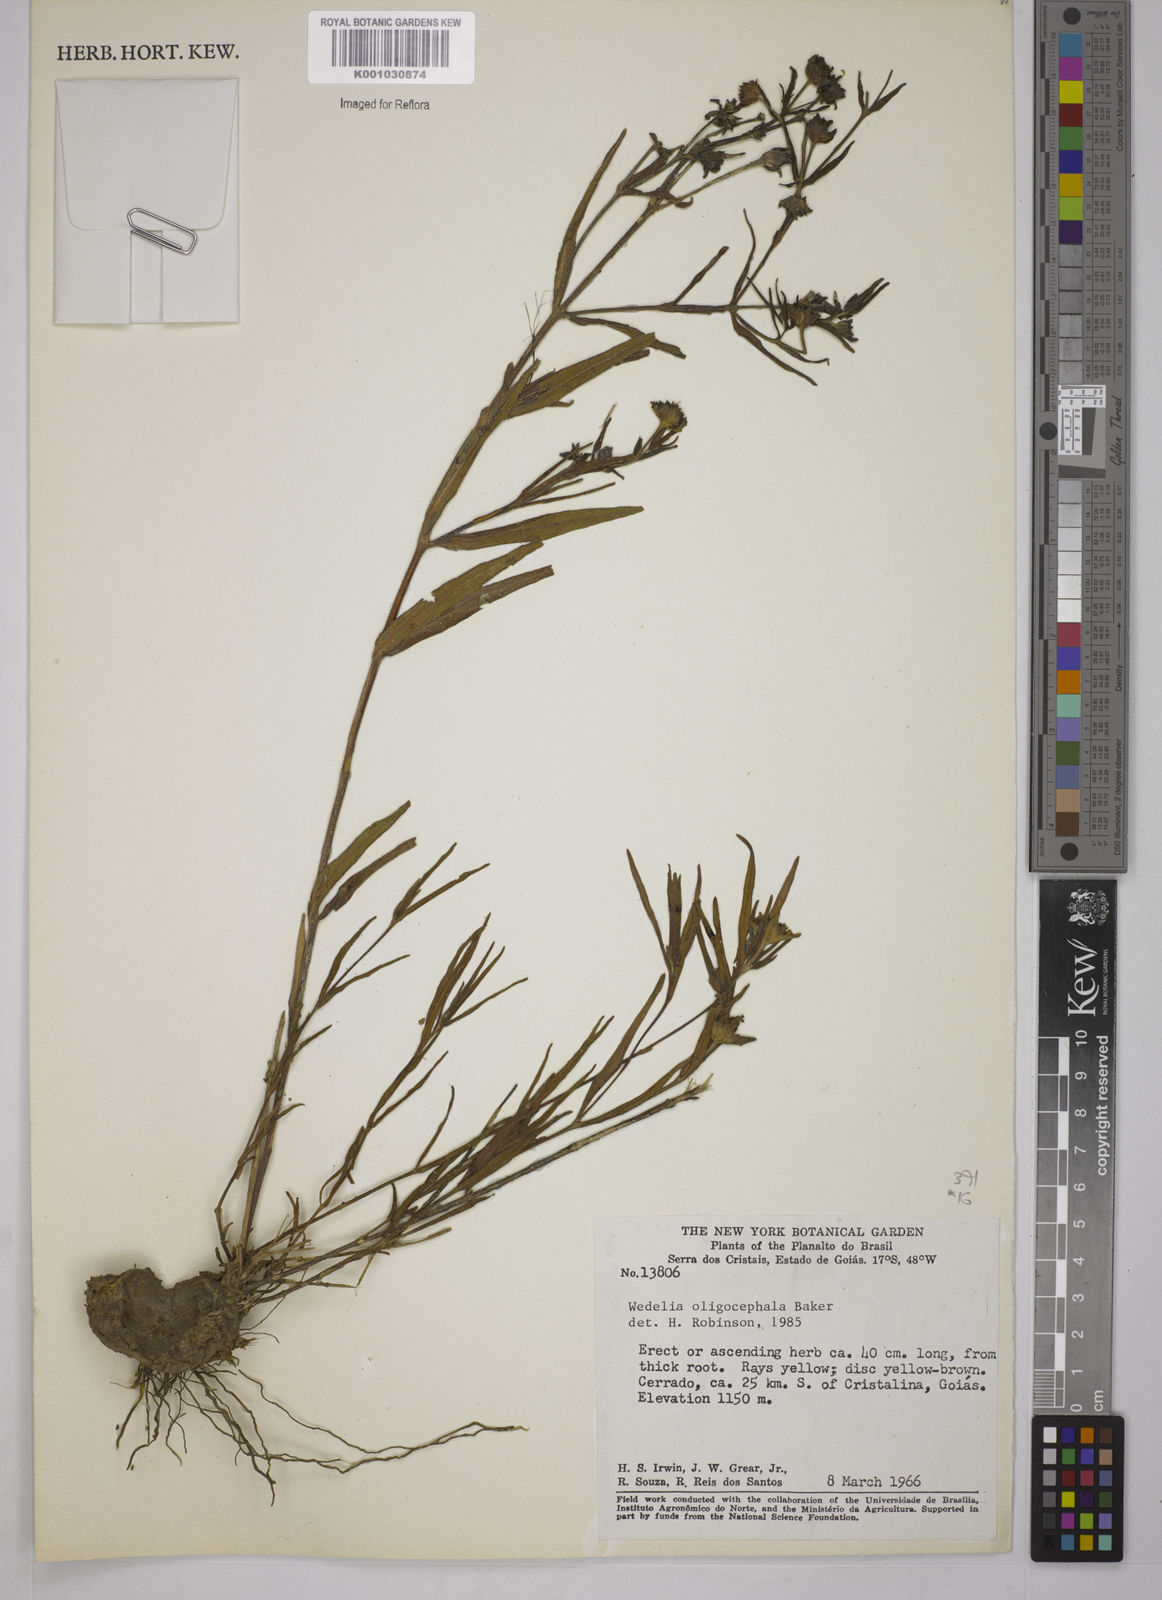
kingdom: Plantae
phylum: Tracheophyta
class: Magnoliopsida
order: Asterales
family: Asteraceae
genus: Wedelia
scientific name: Wedelia oligocephala
